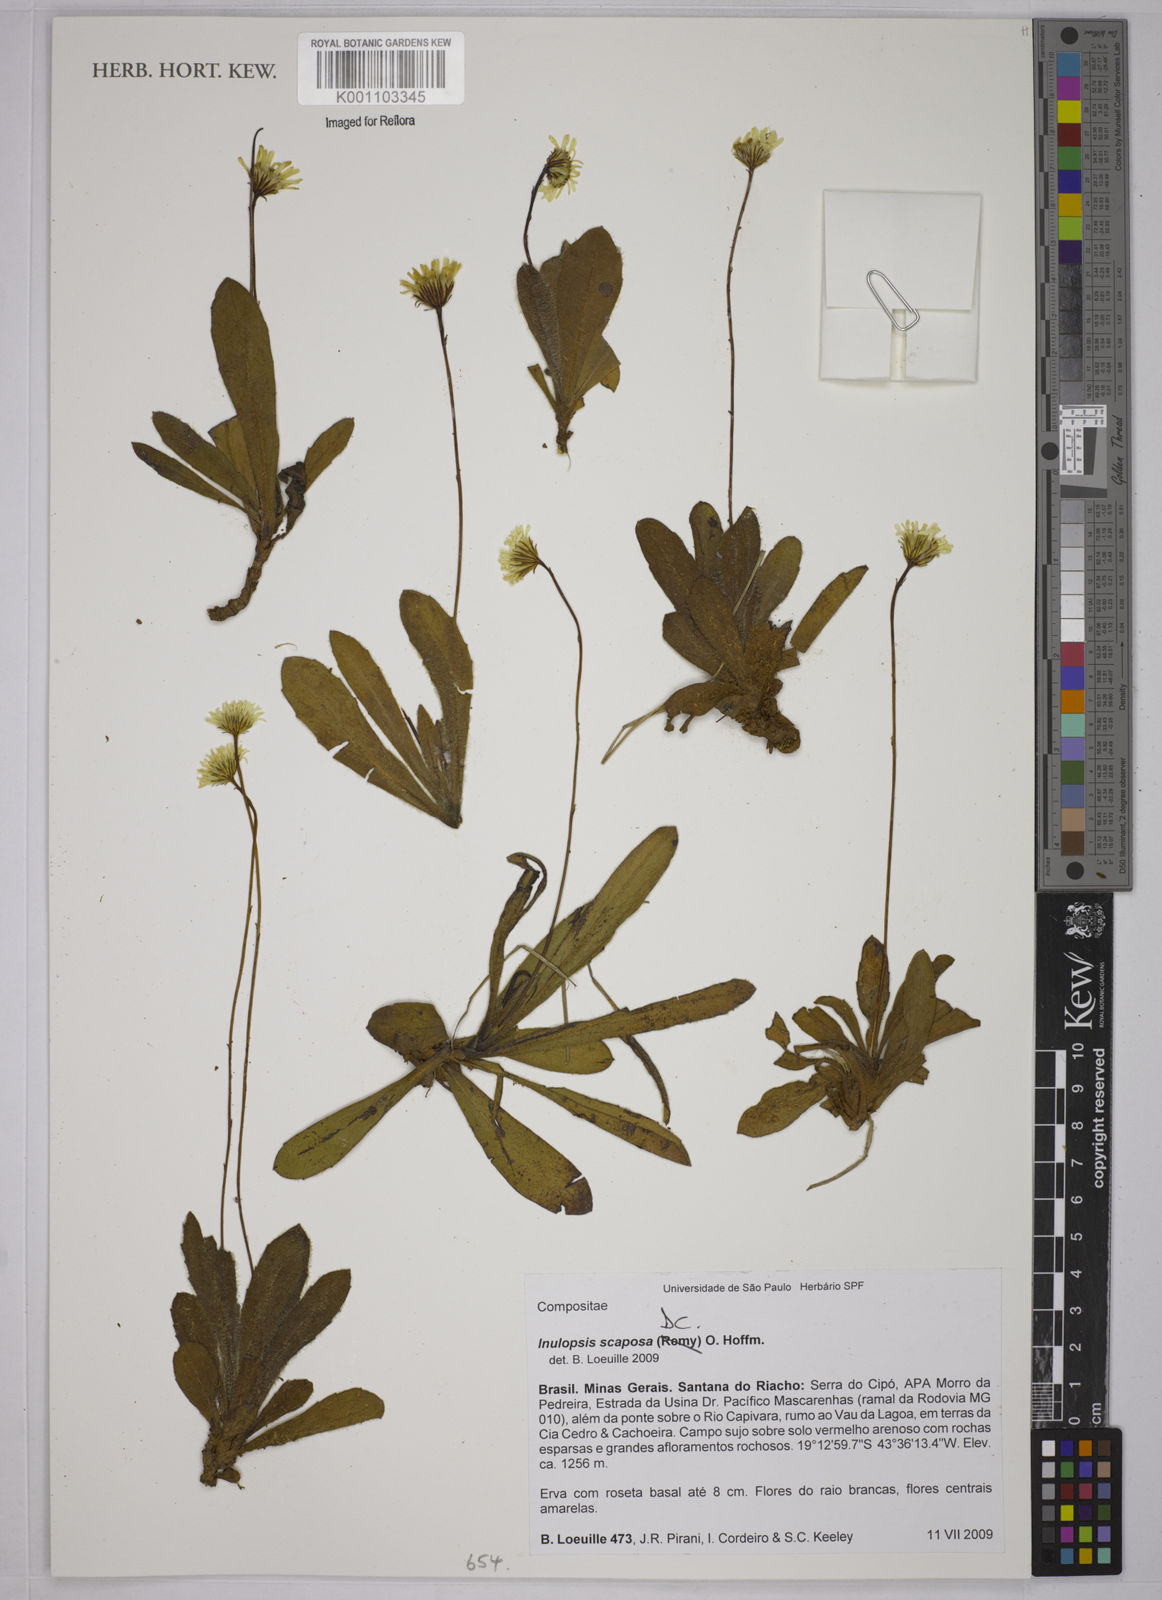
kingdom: Plantae
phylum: Tracheophyta
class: Magnoliopsida
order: Asterales
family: Asteraceae
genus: Inulopsis
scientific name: Inulopsis scaposa
